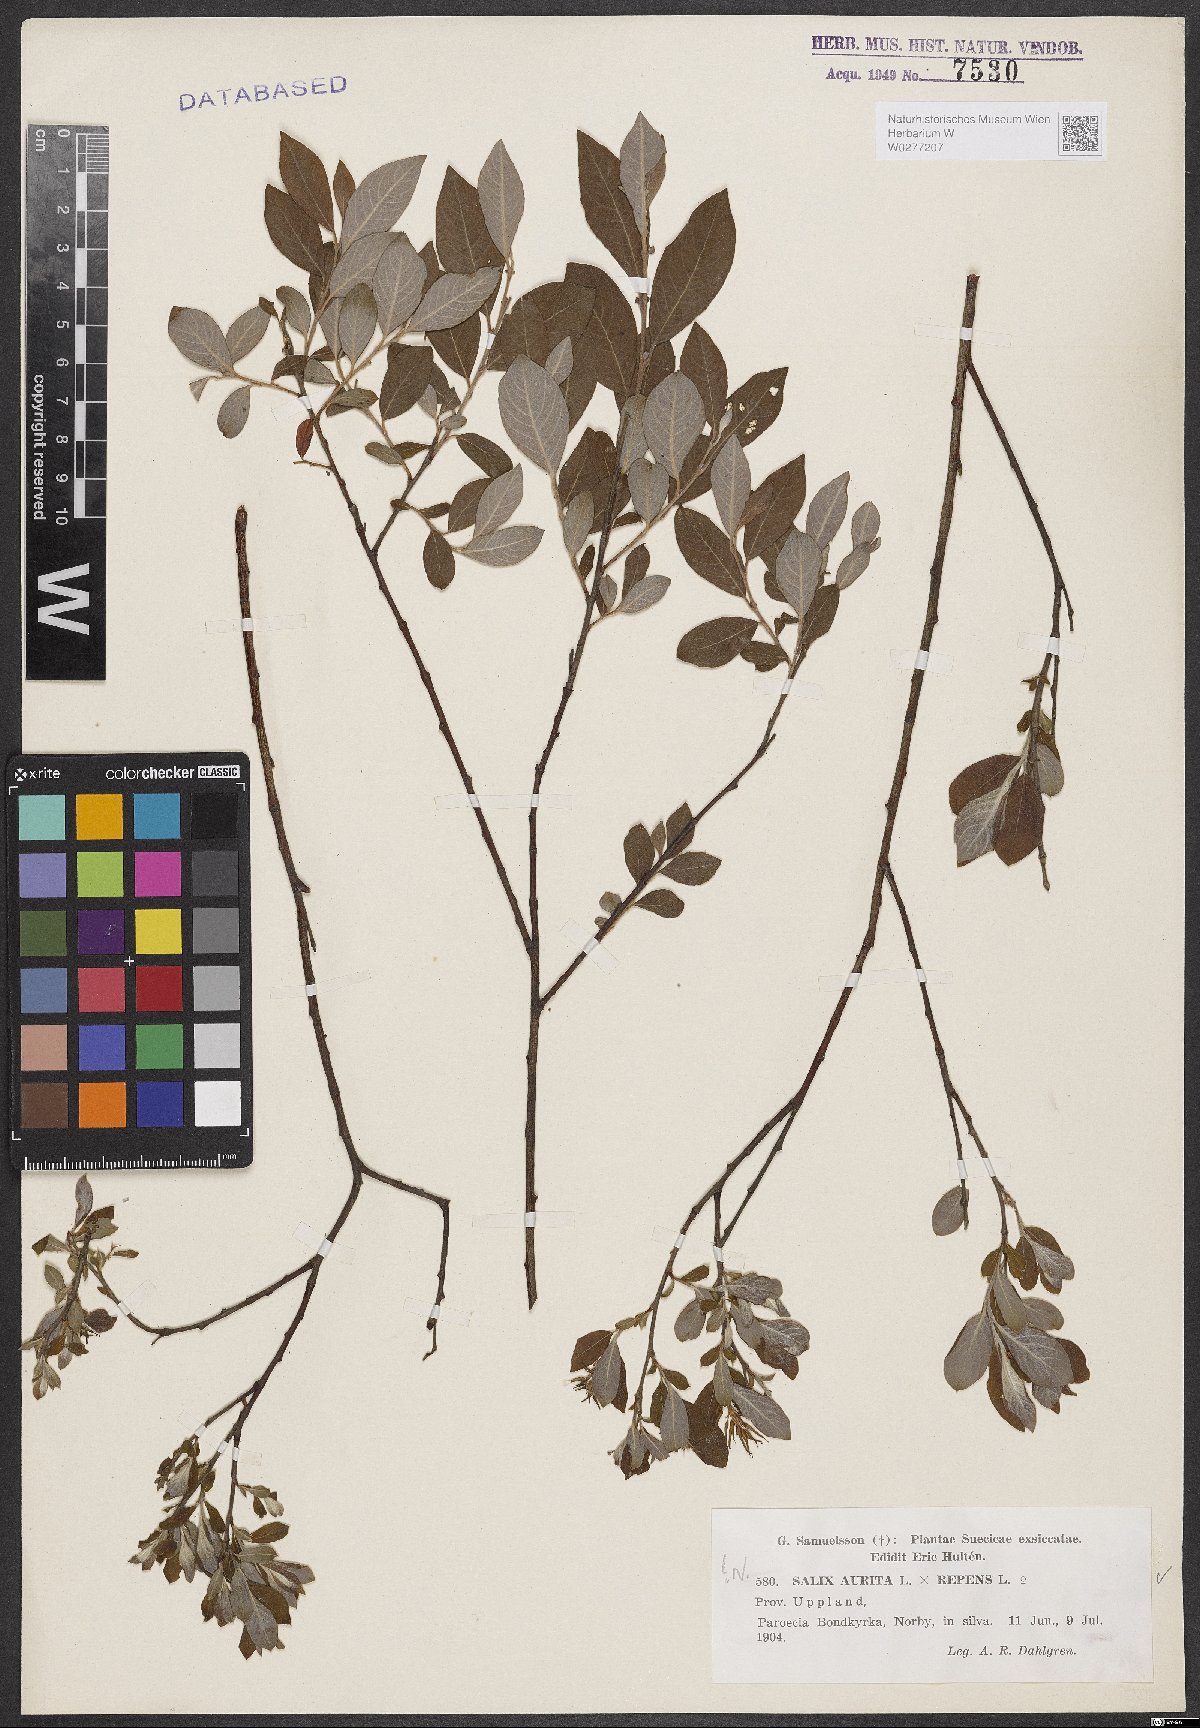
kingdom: Plantae
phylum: Tracheophyta
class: Magnoliopsida
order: Malpighiales
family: Salicaceae
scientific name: Salicaceae
